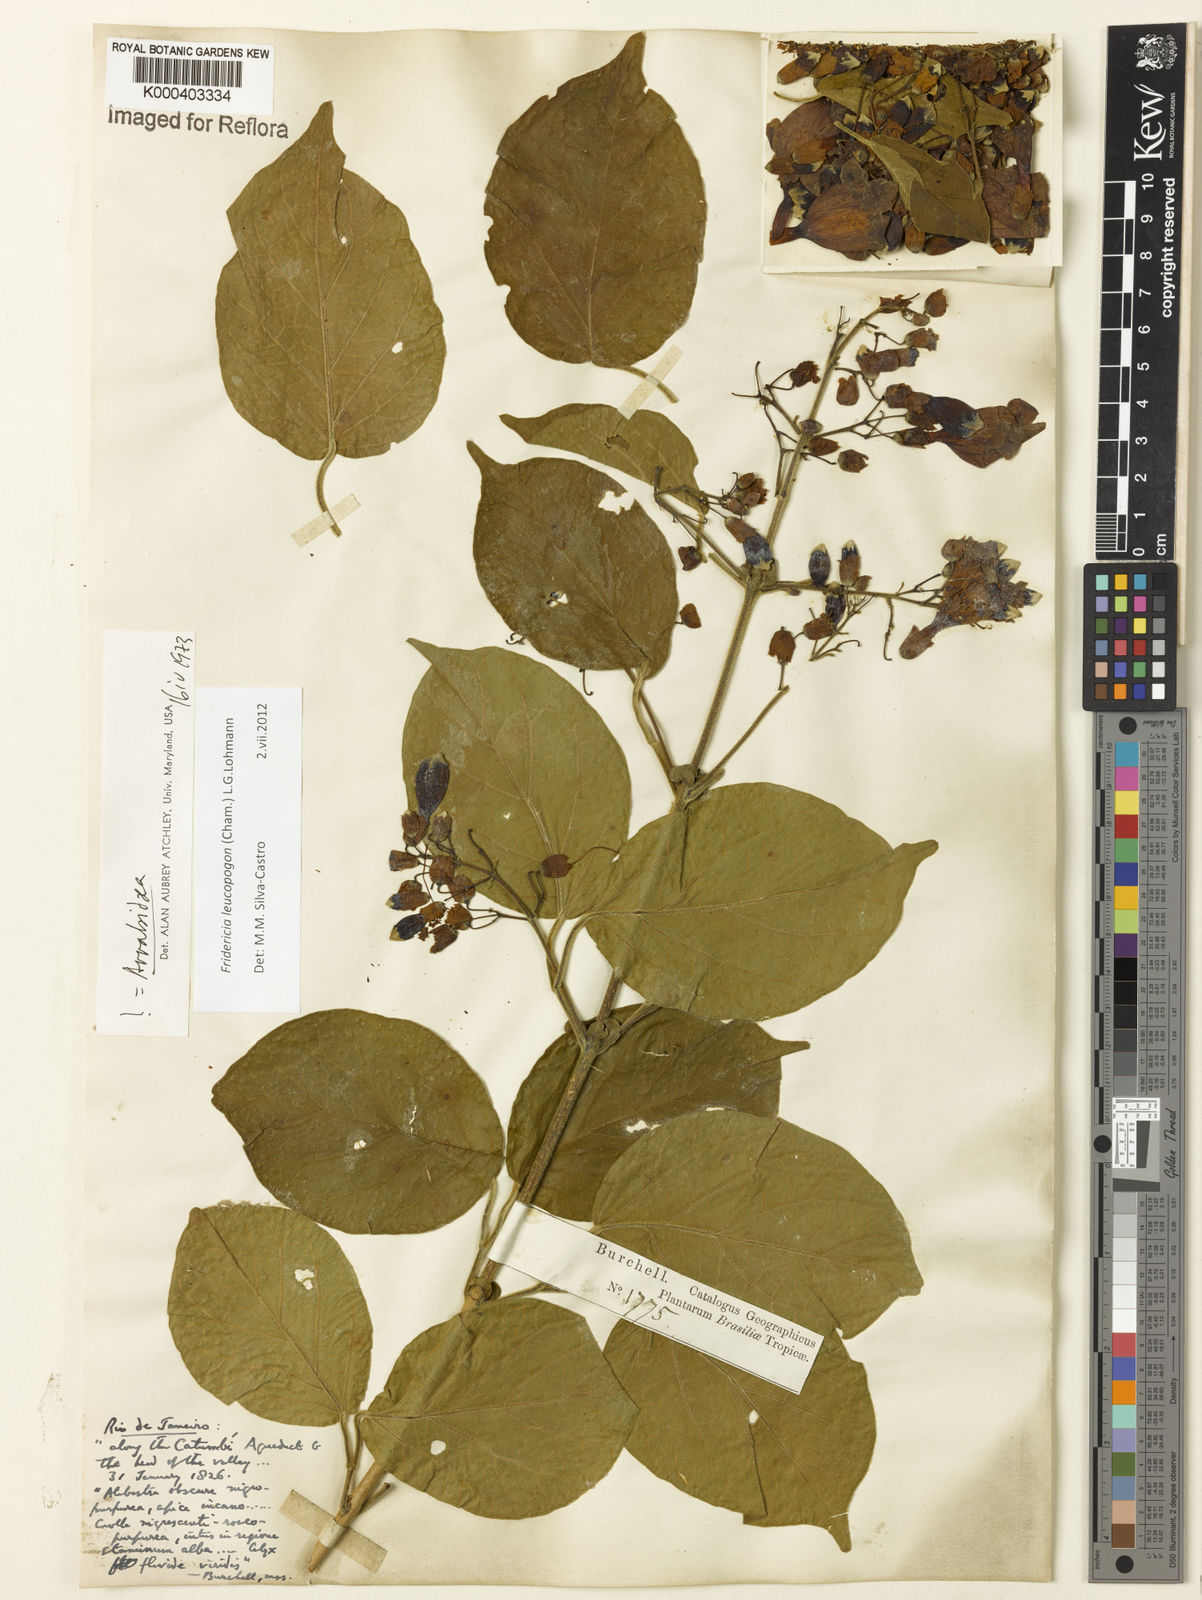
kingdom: Plantae
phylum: Tracheophyta
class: Magnoliopsida
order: Lamiales
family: Bignoniaceae
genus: Fridericia
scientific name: Fridericia leucopogon
